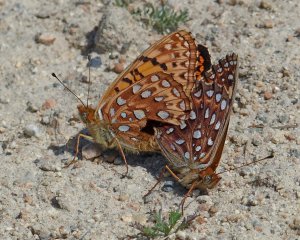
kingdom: Animalia
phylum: Arthropoda
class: Insecta
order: Lepidoptera
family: Nymphalidae
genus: Speyeria
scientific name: Speyeria atlantis
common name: Northwestern Fritillary
